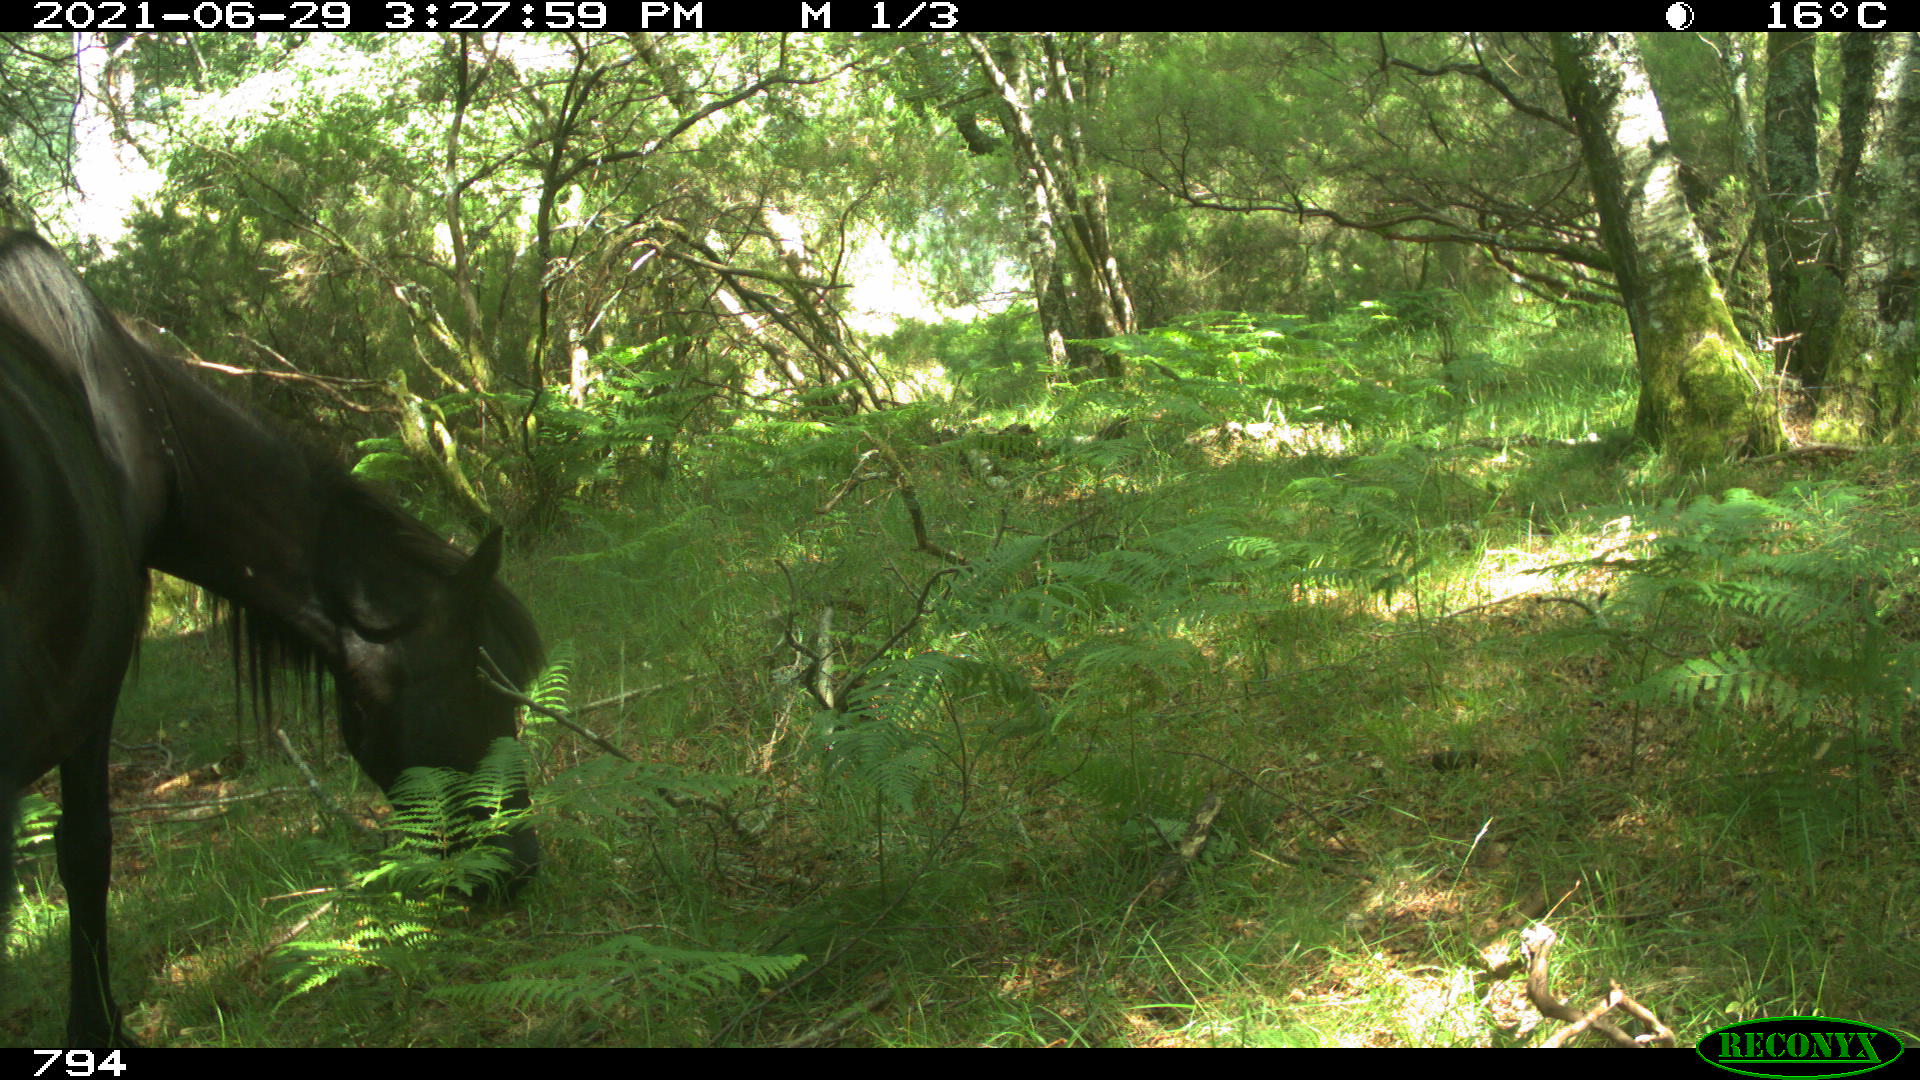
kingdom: Animalia
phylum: Chordata
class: Mammalia
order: Perissodactyla
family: Equidae
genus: Equus
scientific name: Equus caballus
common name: Horse
